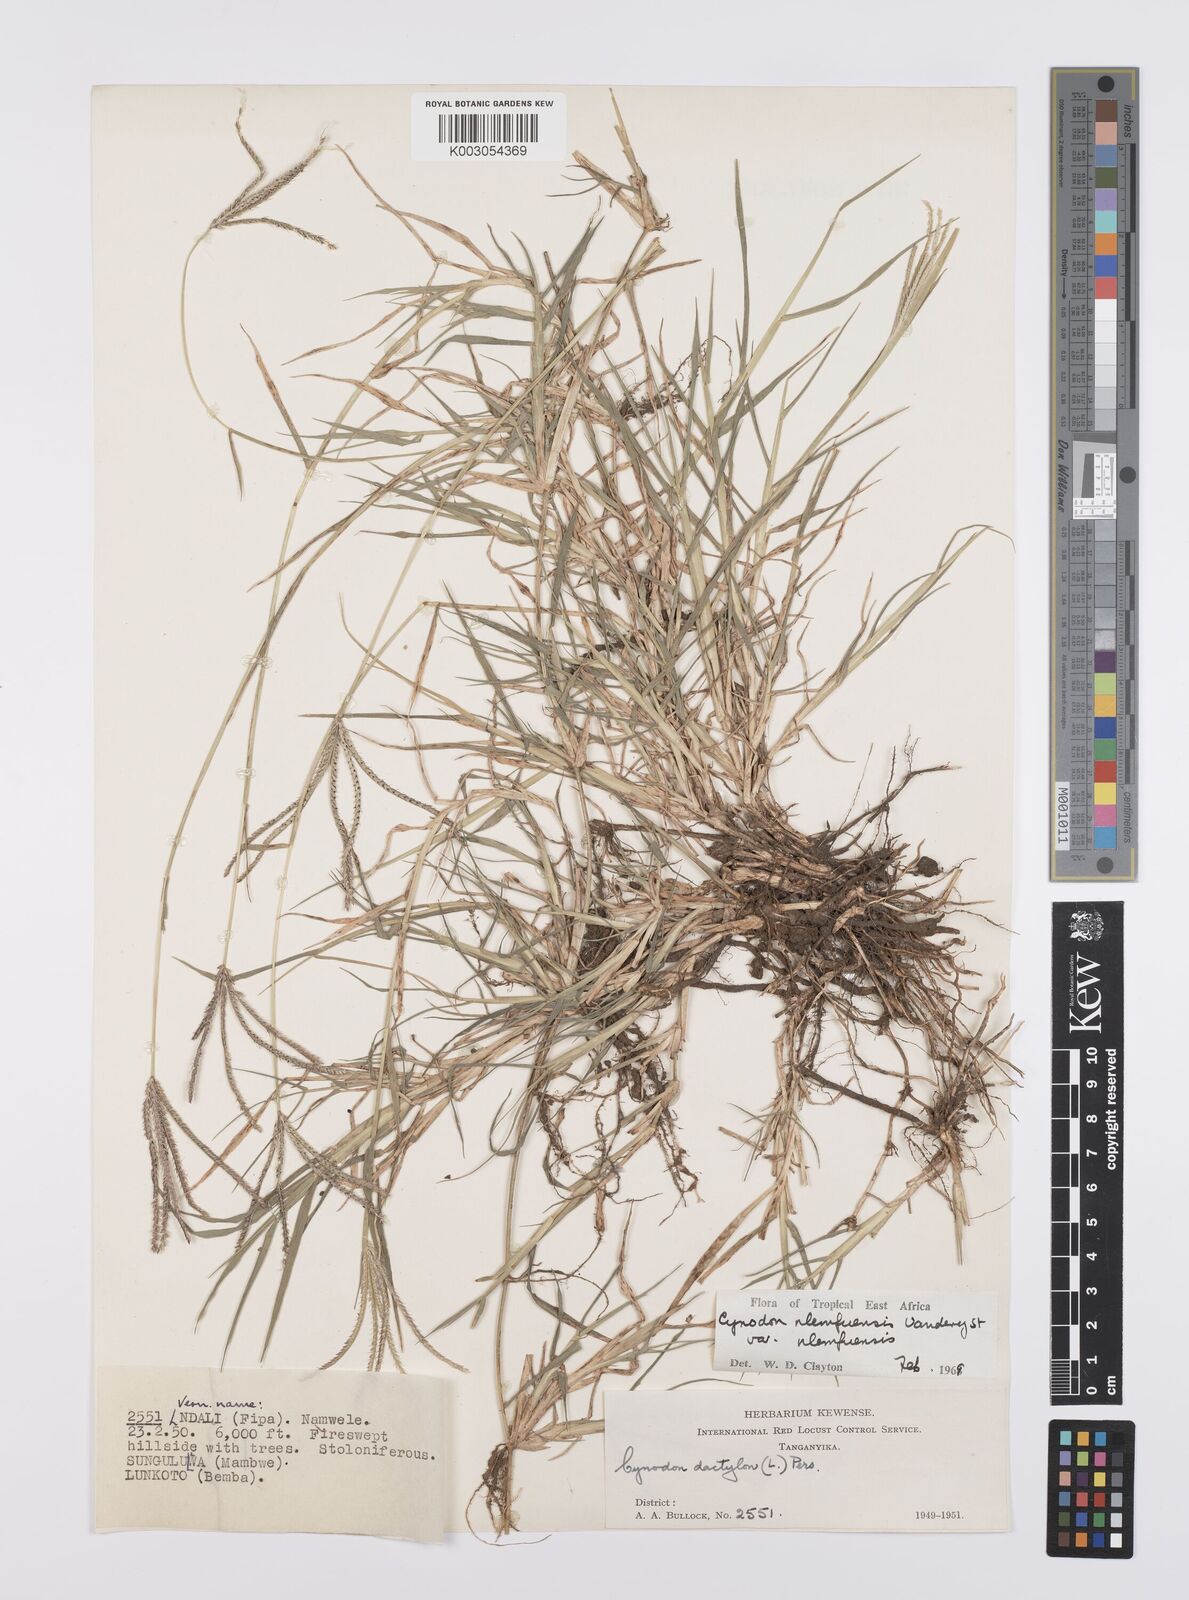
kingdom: Plantae
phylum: Tracheophyta
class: Liliopsida
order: Poales
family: Poaceae
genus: Cynodon
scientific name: Cynodon nlemfuensis
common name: African bermudagrass
